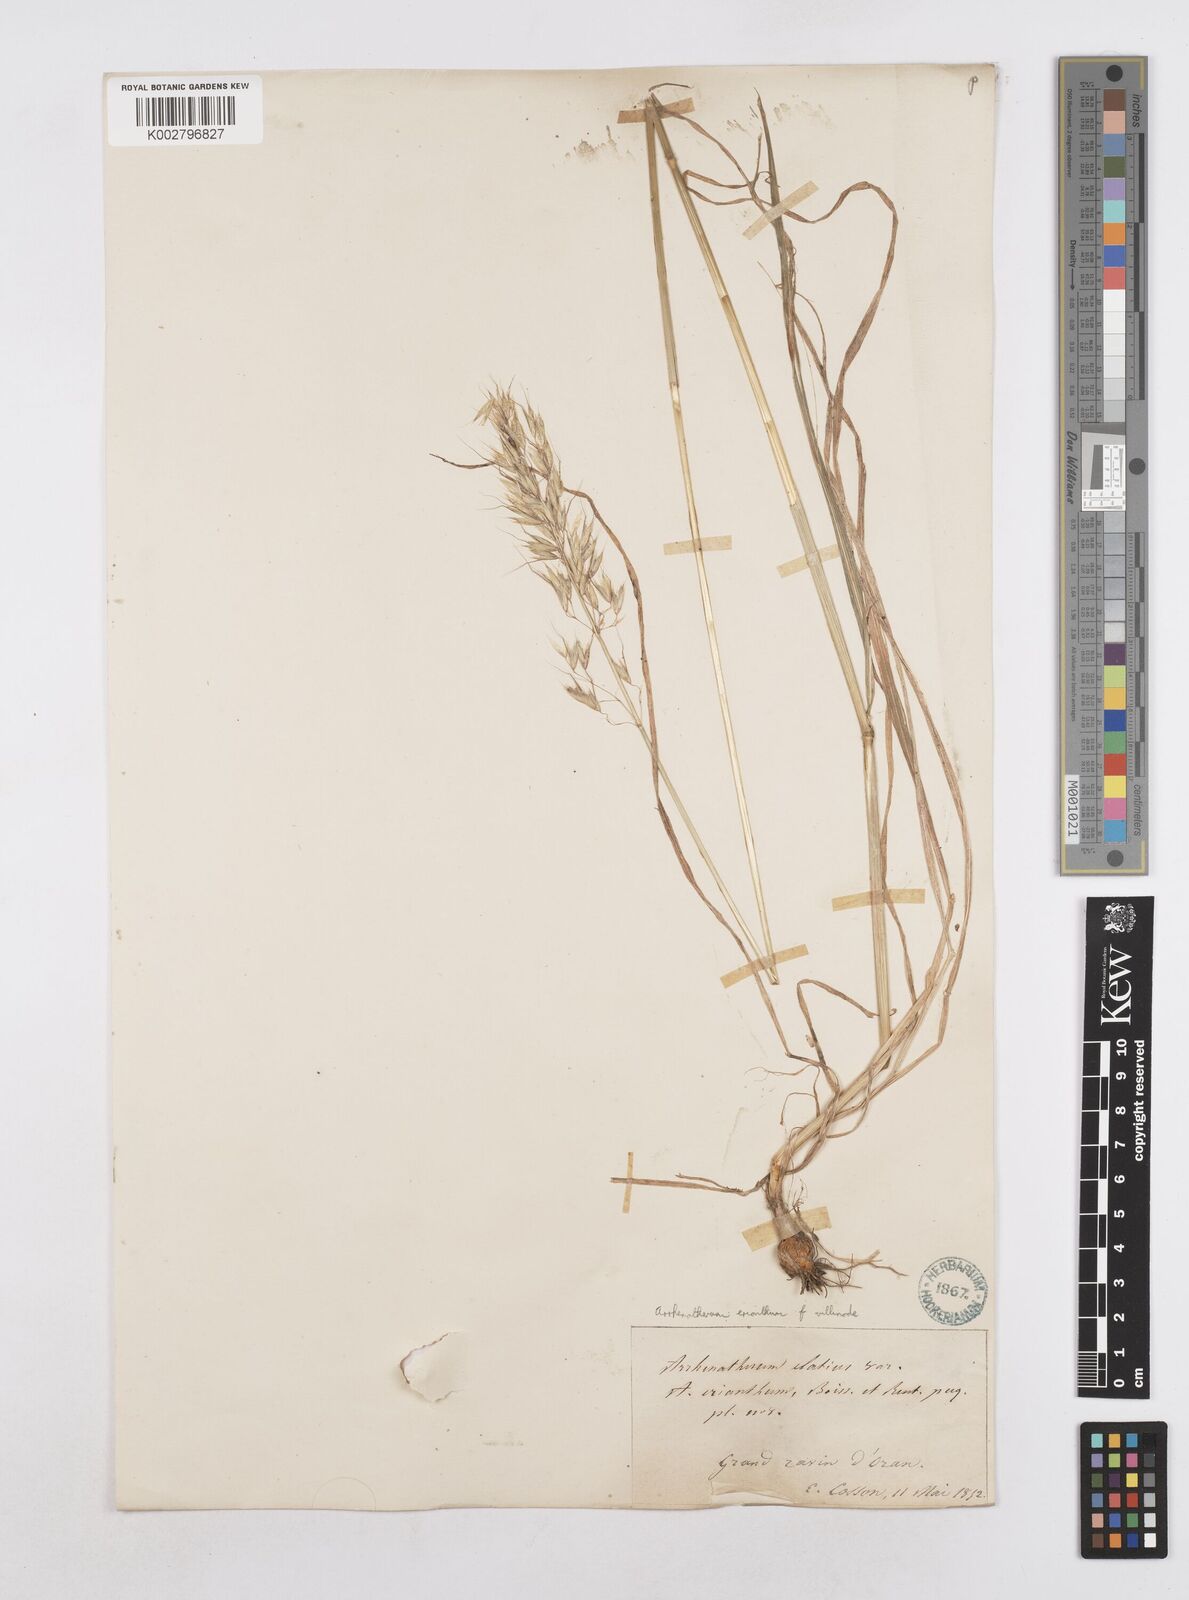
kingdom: Plantae
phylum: Tracheophyta
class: Liliopsida
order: Poales
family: Poaceae
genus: Arrhenatherum
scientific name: Arrhenatherum
